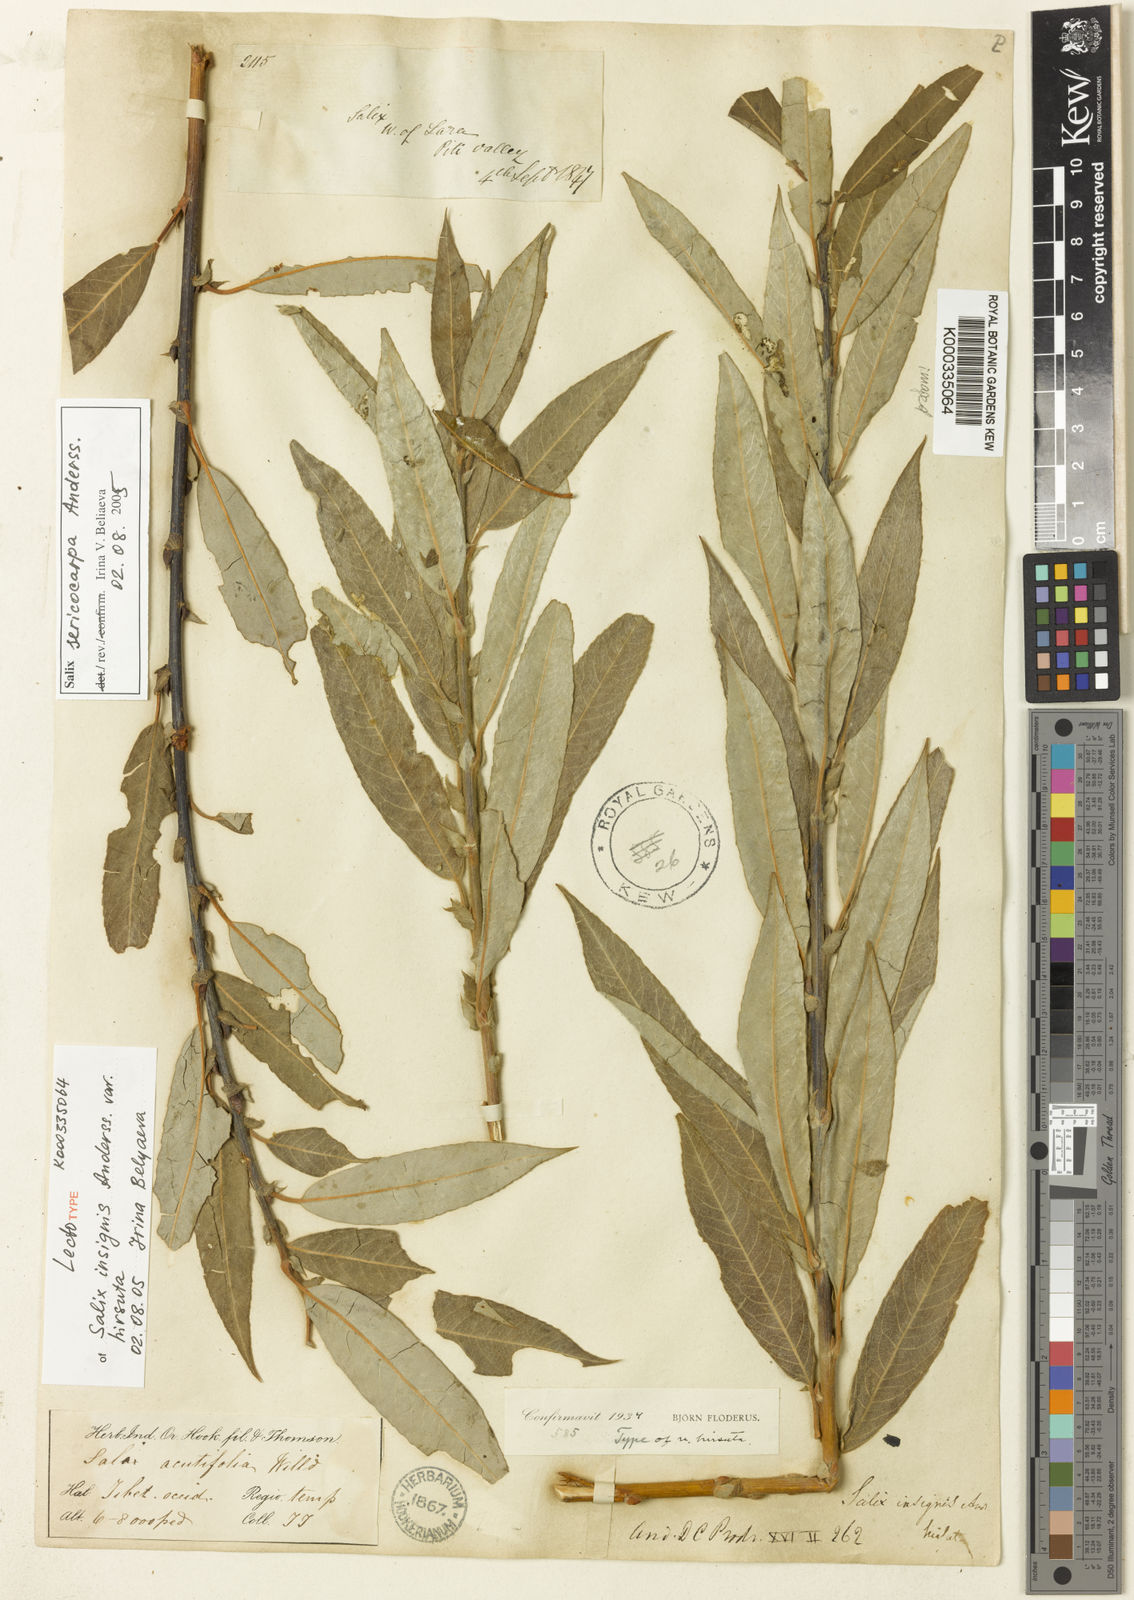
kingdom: Plantae
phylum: Tracheophyta
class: Magnoliopsida
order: Malpighiales
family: Salicaceae
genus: Salix
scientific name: Salix sericocarpa
